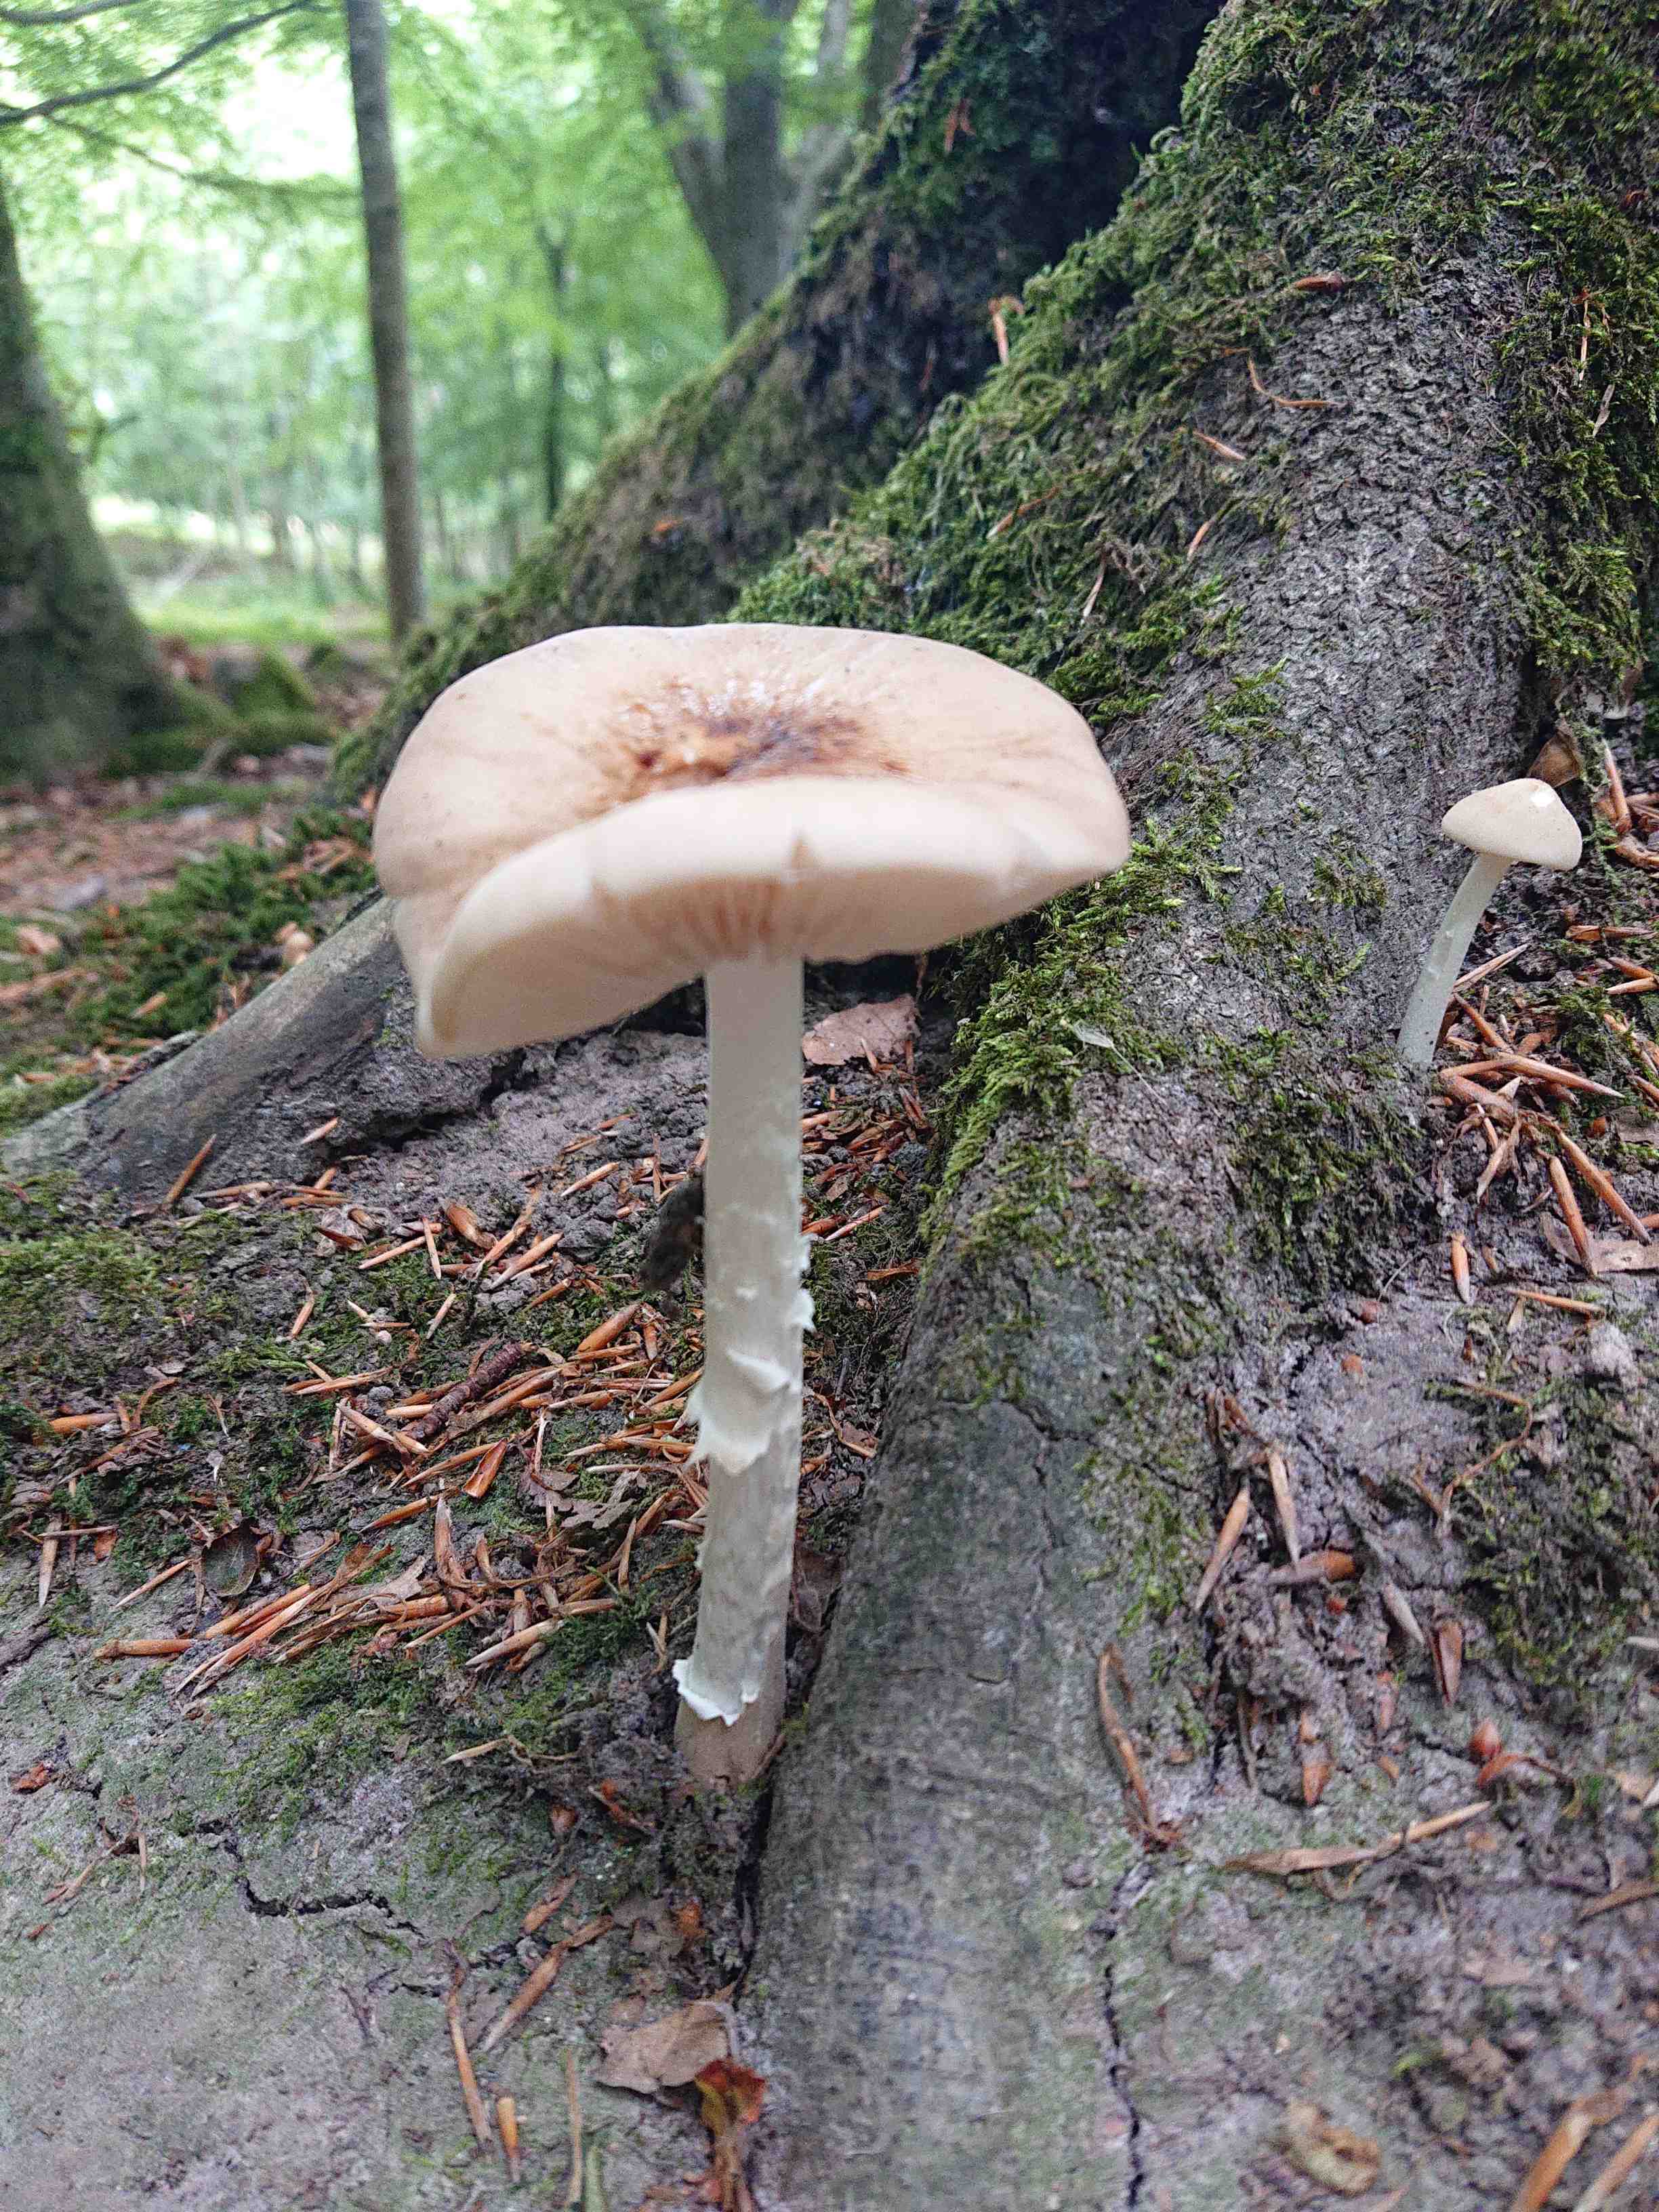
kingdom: Fungi
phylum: Basidiomycota
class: Agaricomycetes
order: Agaricales
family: Physalacriaceae
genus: Hymenopellis
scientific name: Hymenopellis radicata
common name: almindelig pælerodshat
